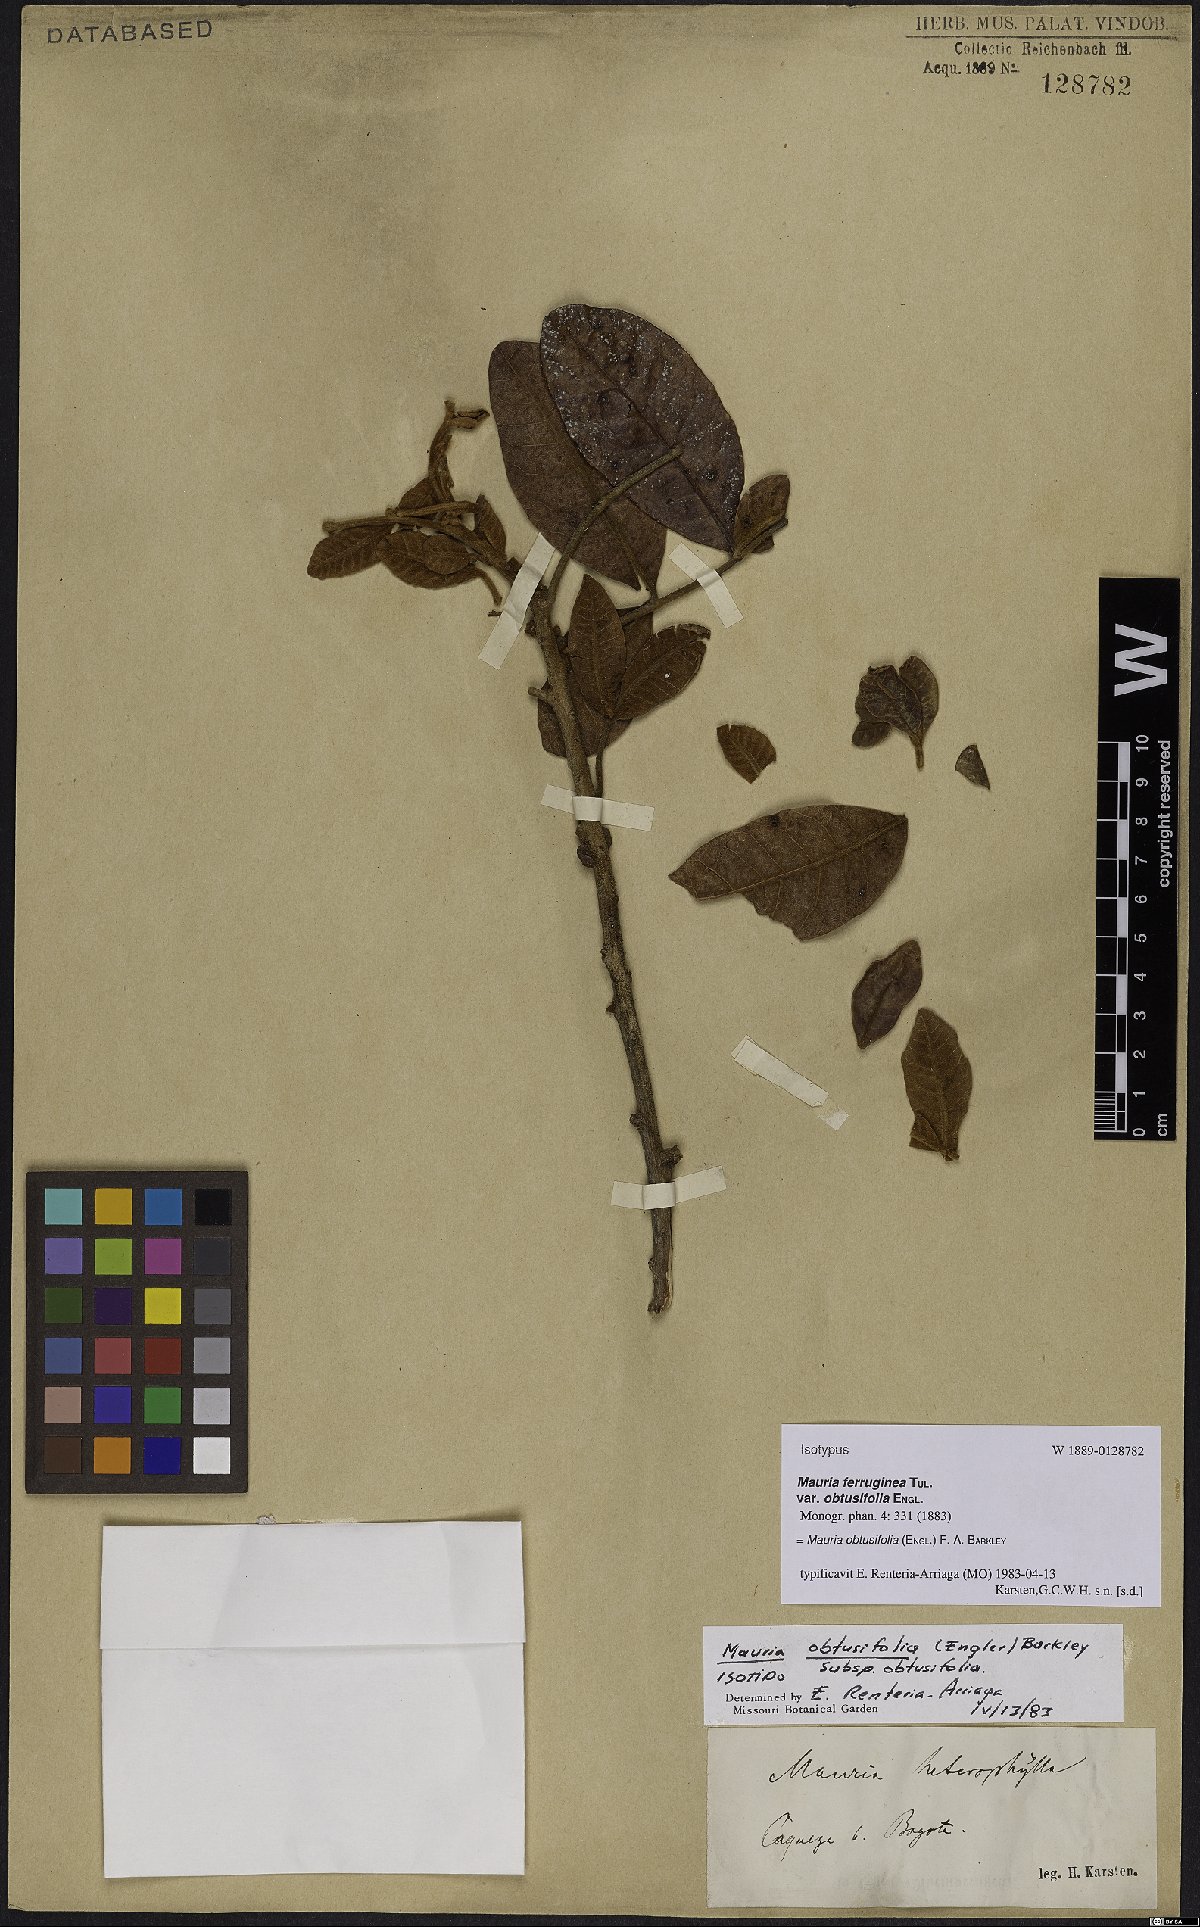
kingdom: Plantae
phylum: Tracheophyta
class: Magnoliopsida
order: Sapindales
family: Anacardiaceae
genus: Mauria
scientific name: Mauria obtusifolia
